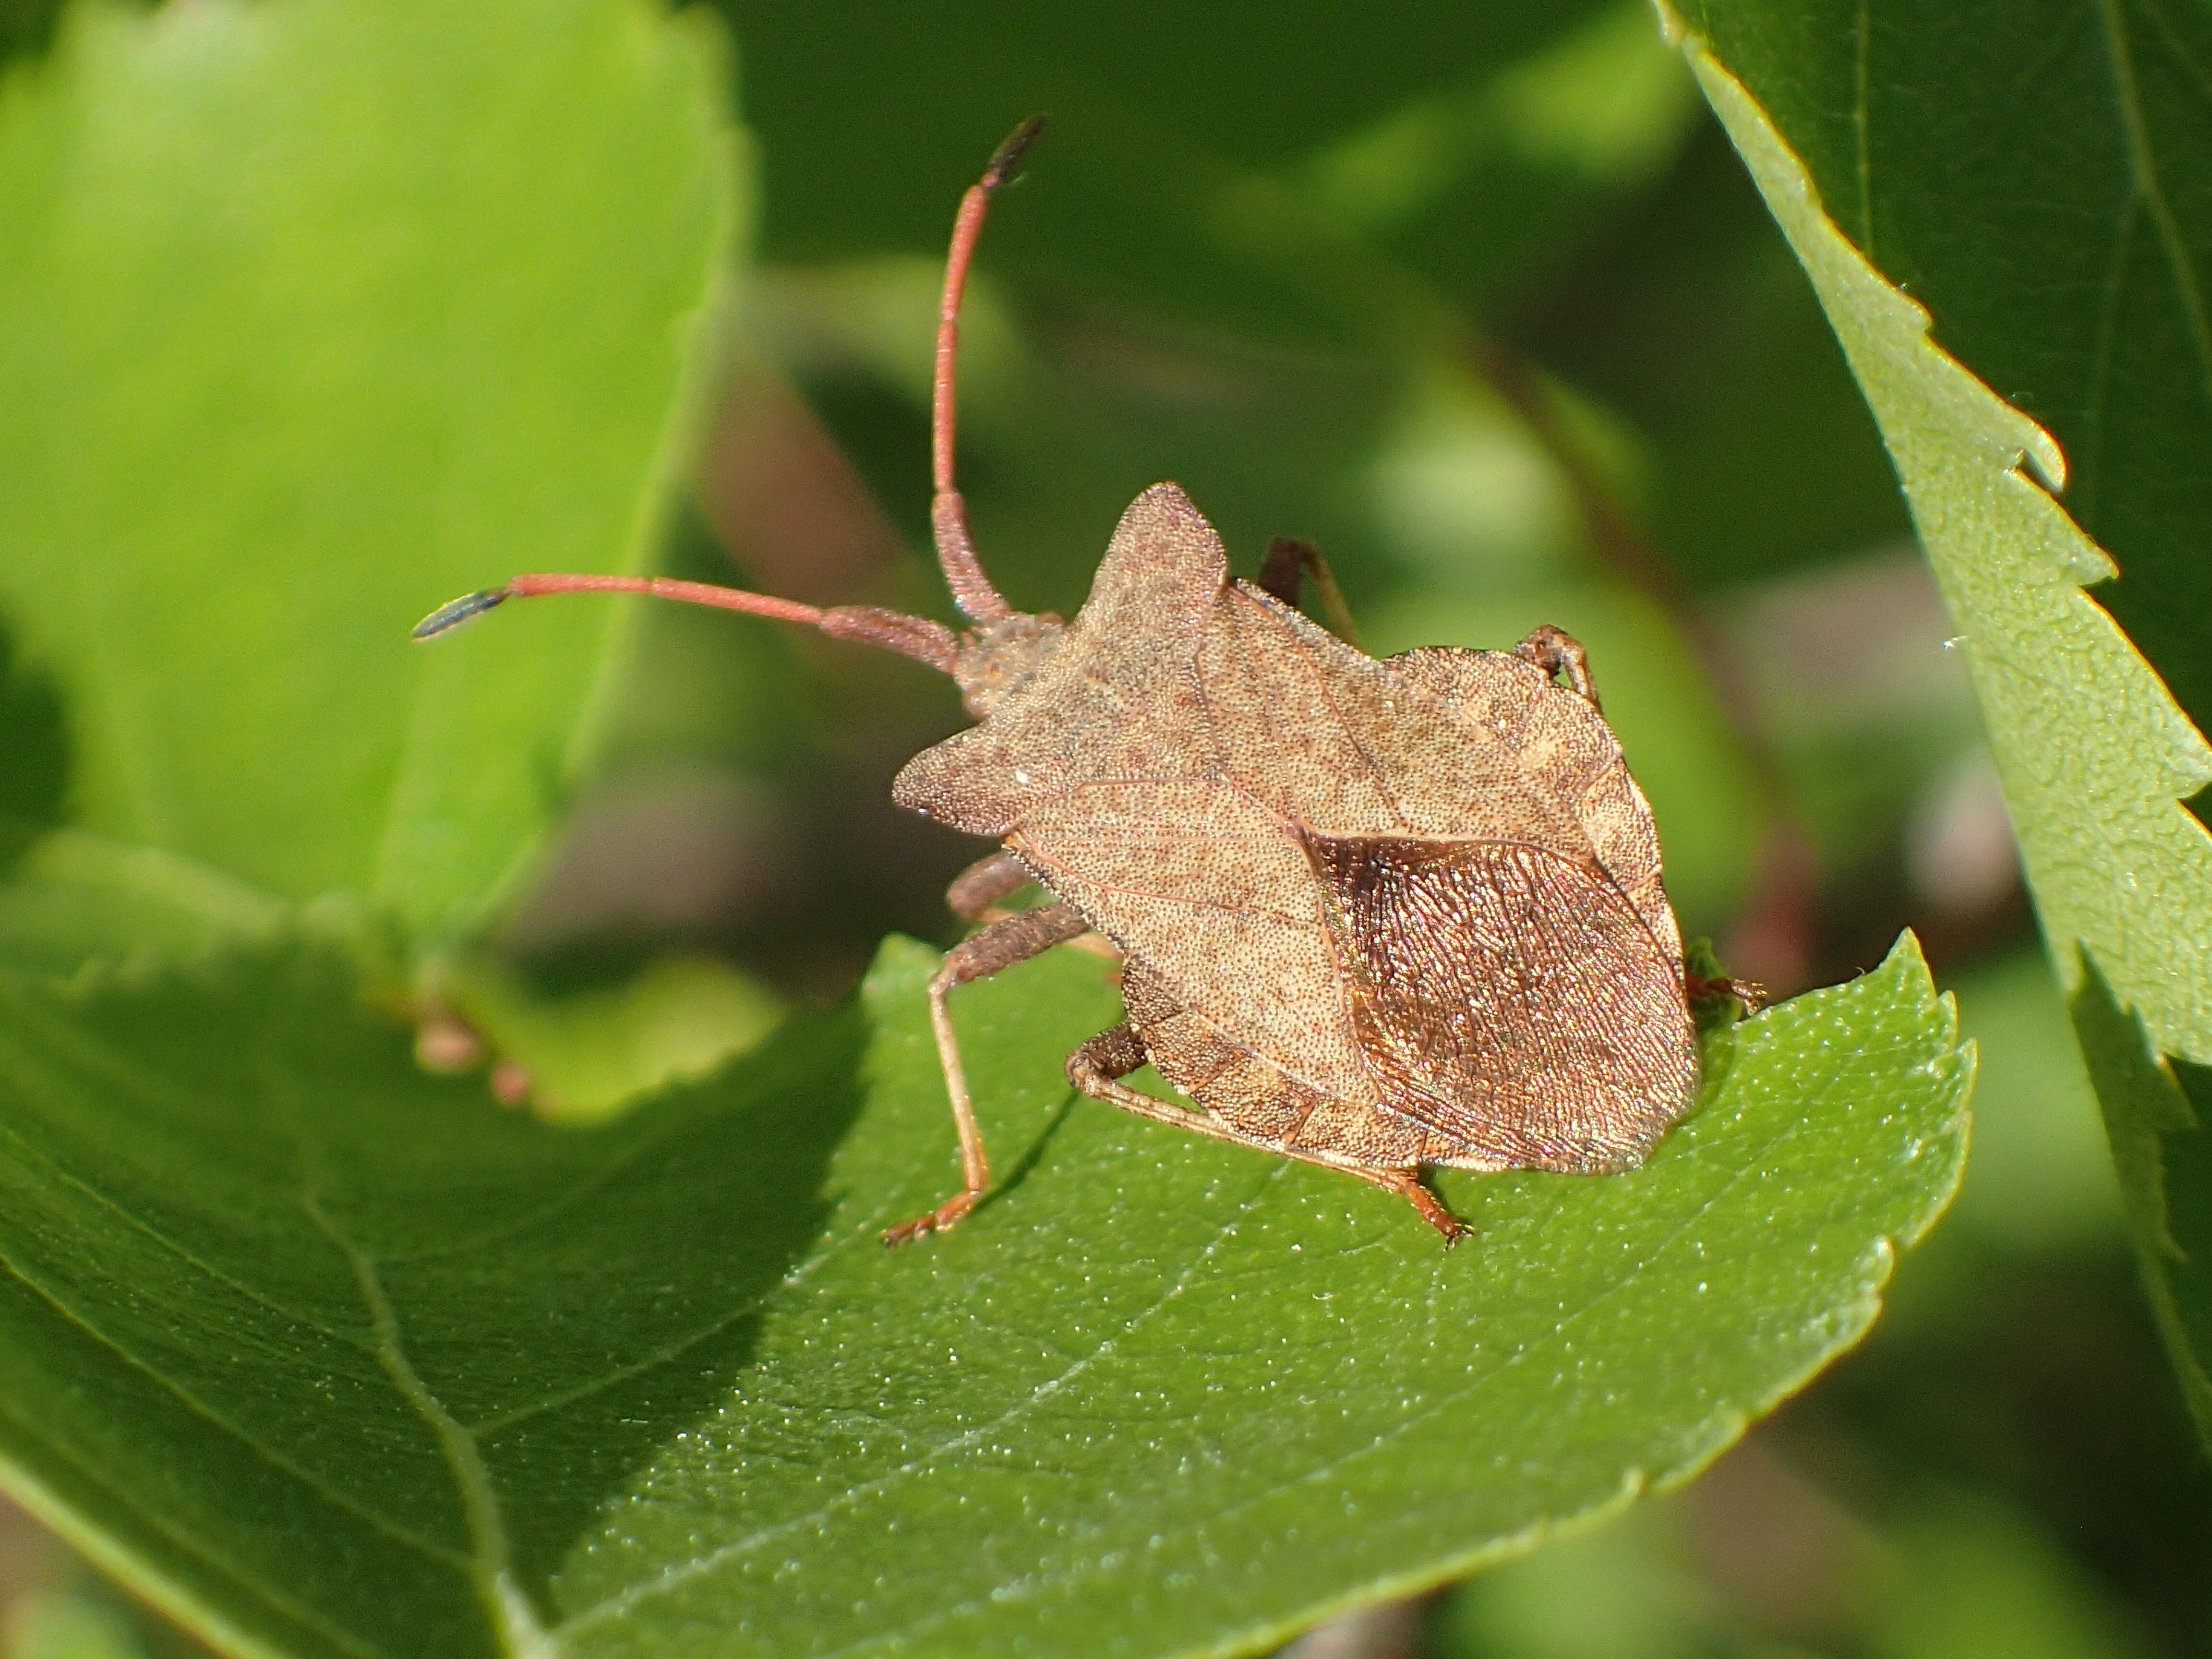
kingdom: Animalia
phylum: Arthropoda
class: Insecta
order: Hemiptera
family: Coreidae
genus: Coreus
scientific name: Coreus marginatus
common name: Dock bug
